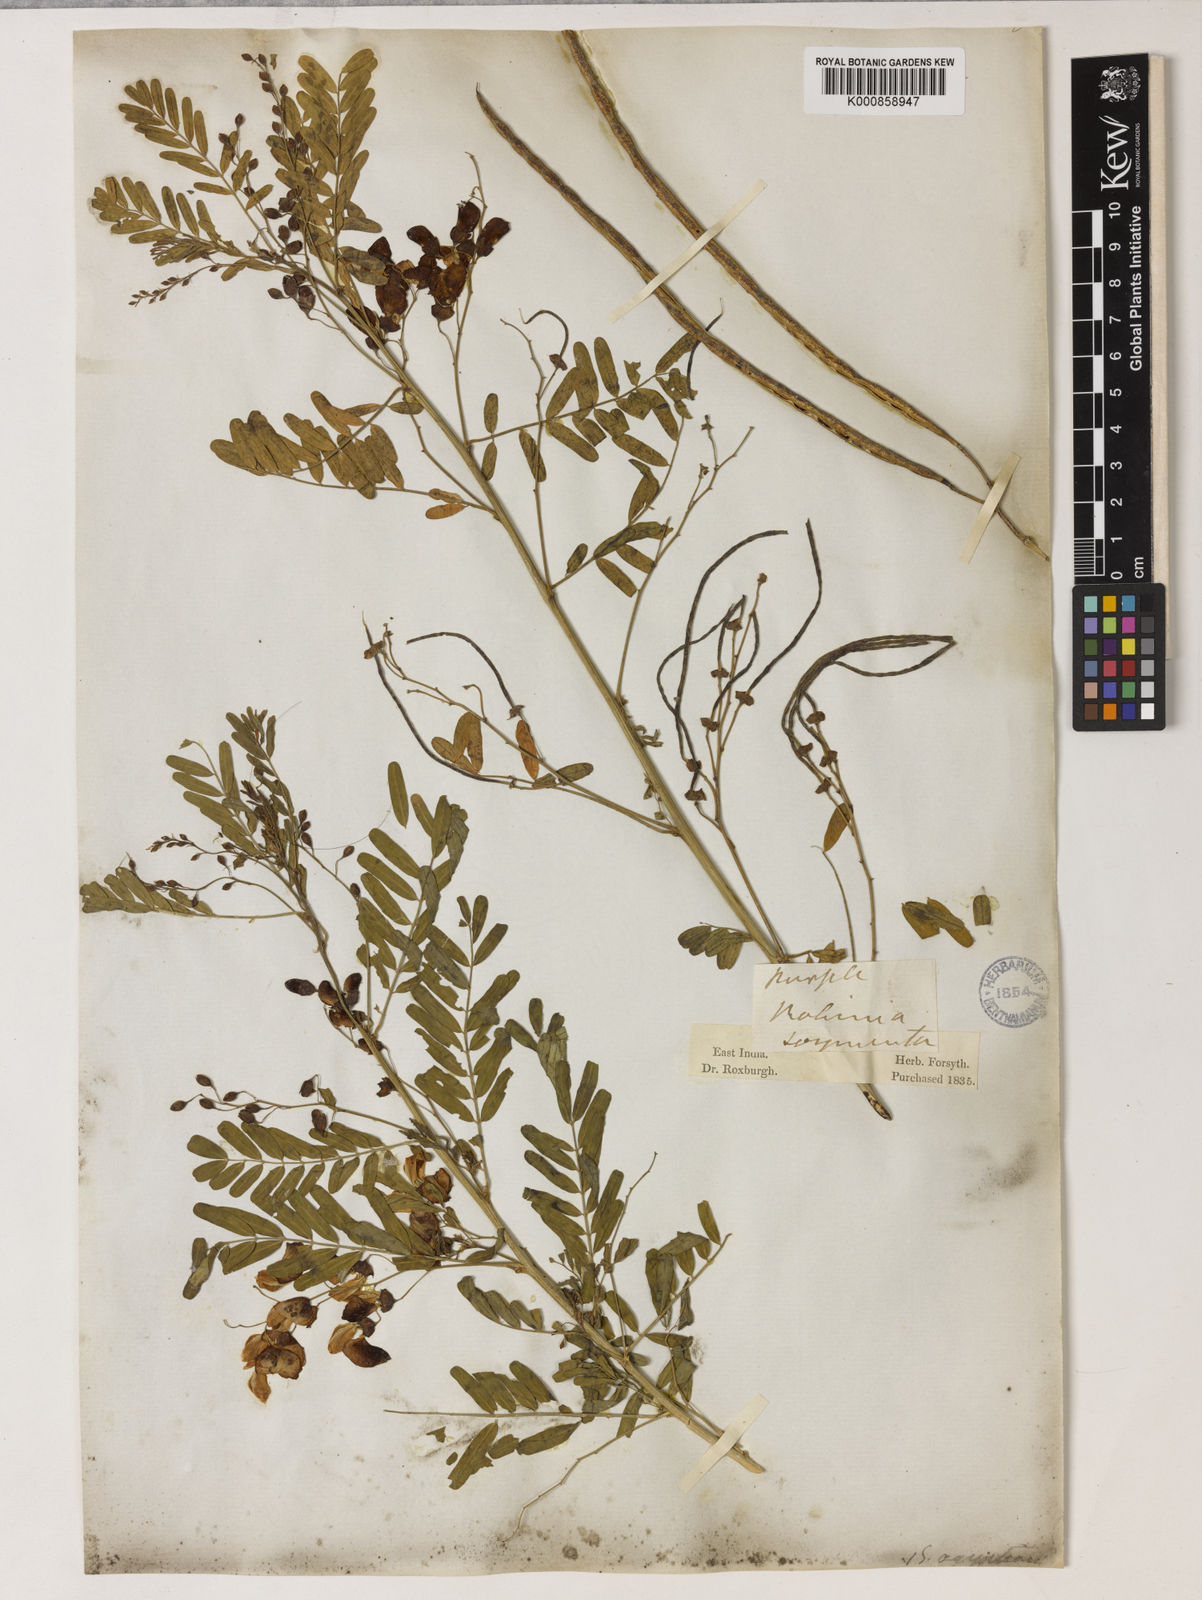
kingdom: Plantae
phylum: Tracheophyta
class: Magnoliopsida
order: Fabales
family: Fabaceae
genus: Sesbania
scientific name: Sesbania sesban
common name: Egyptian sesban
